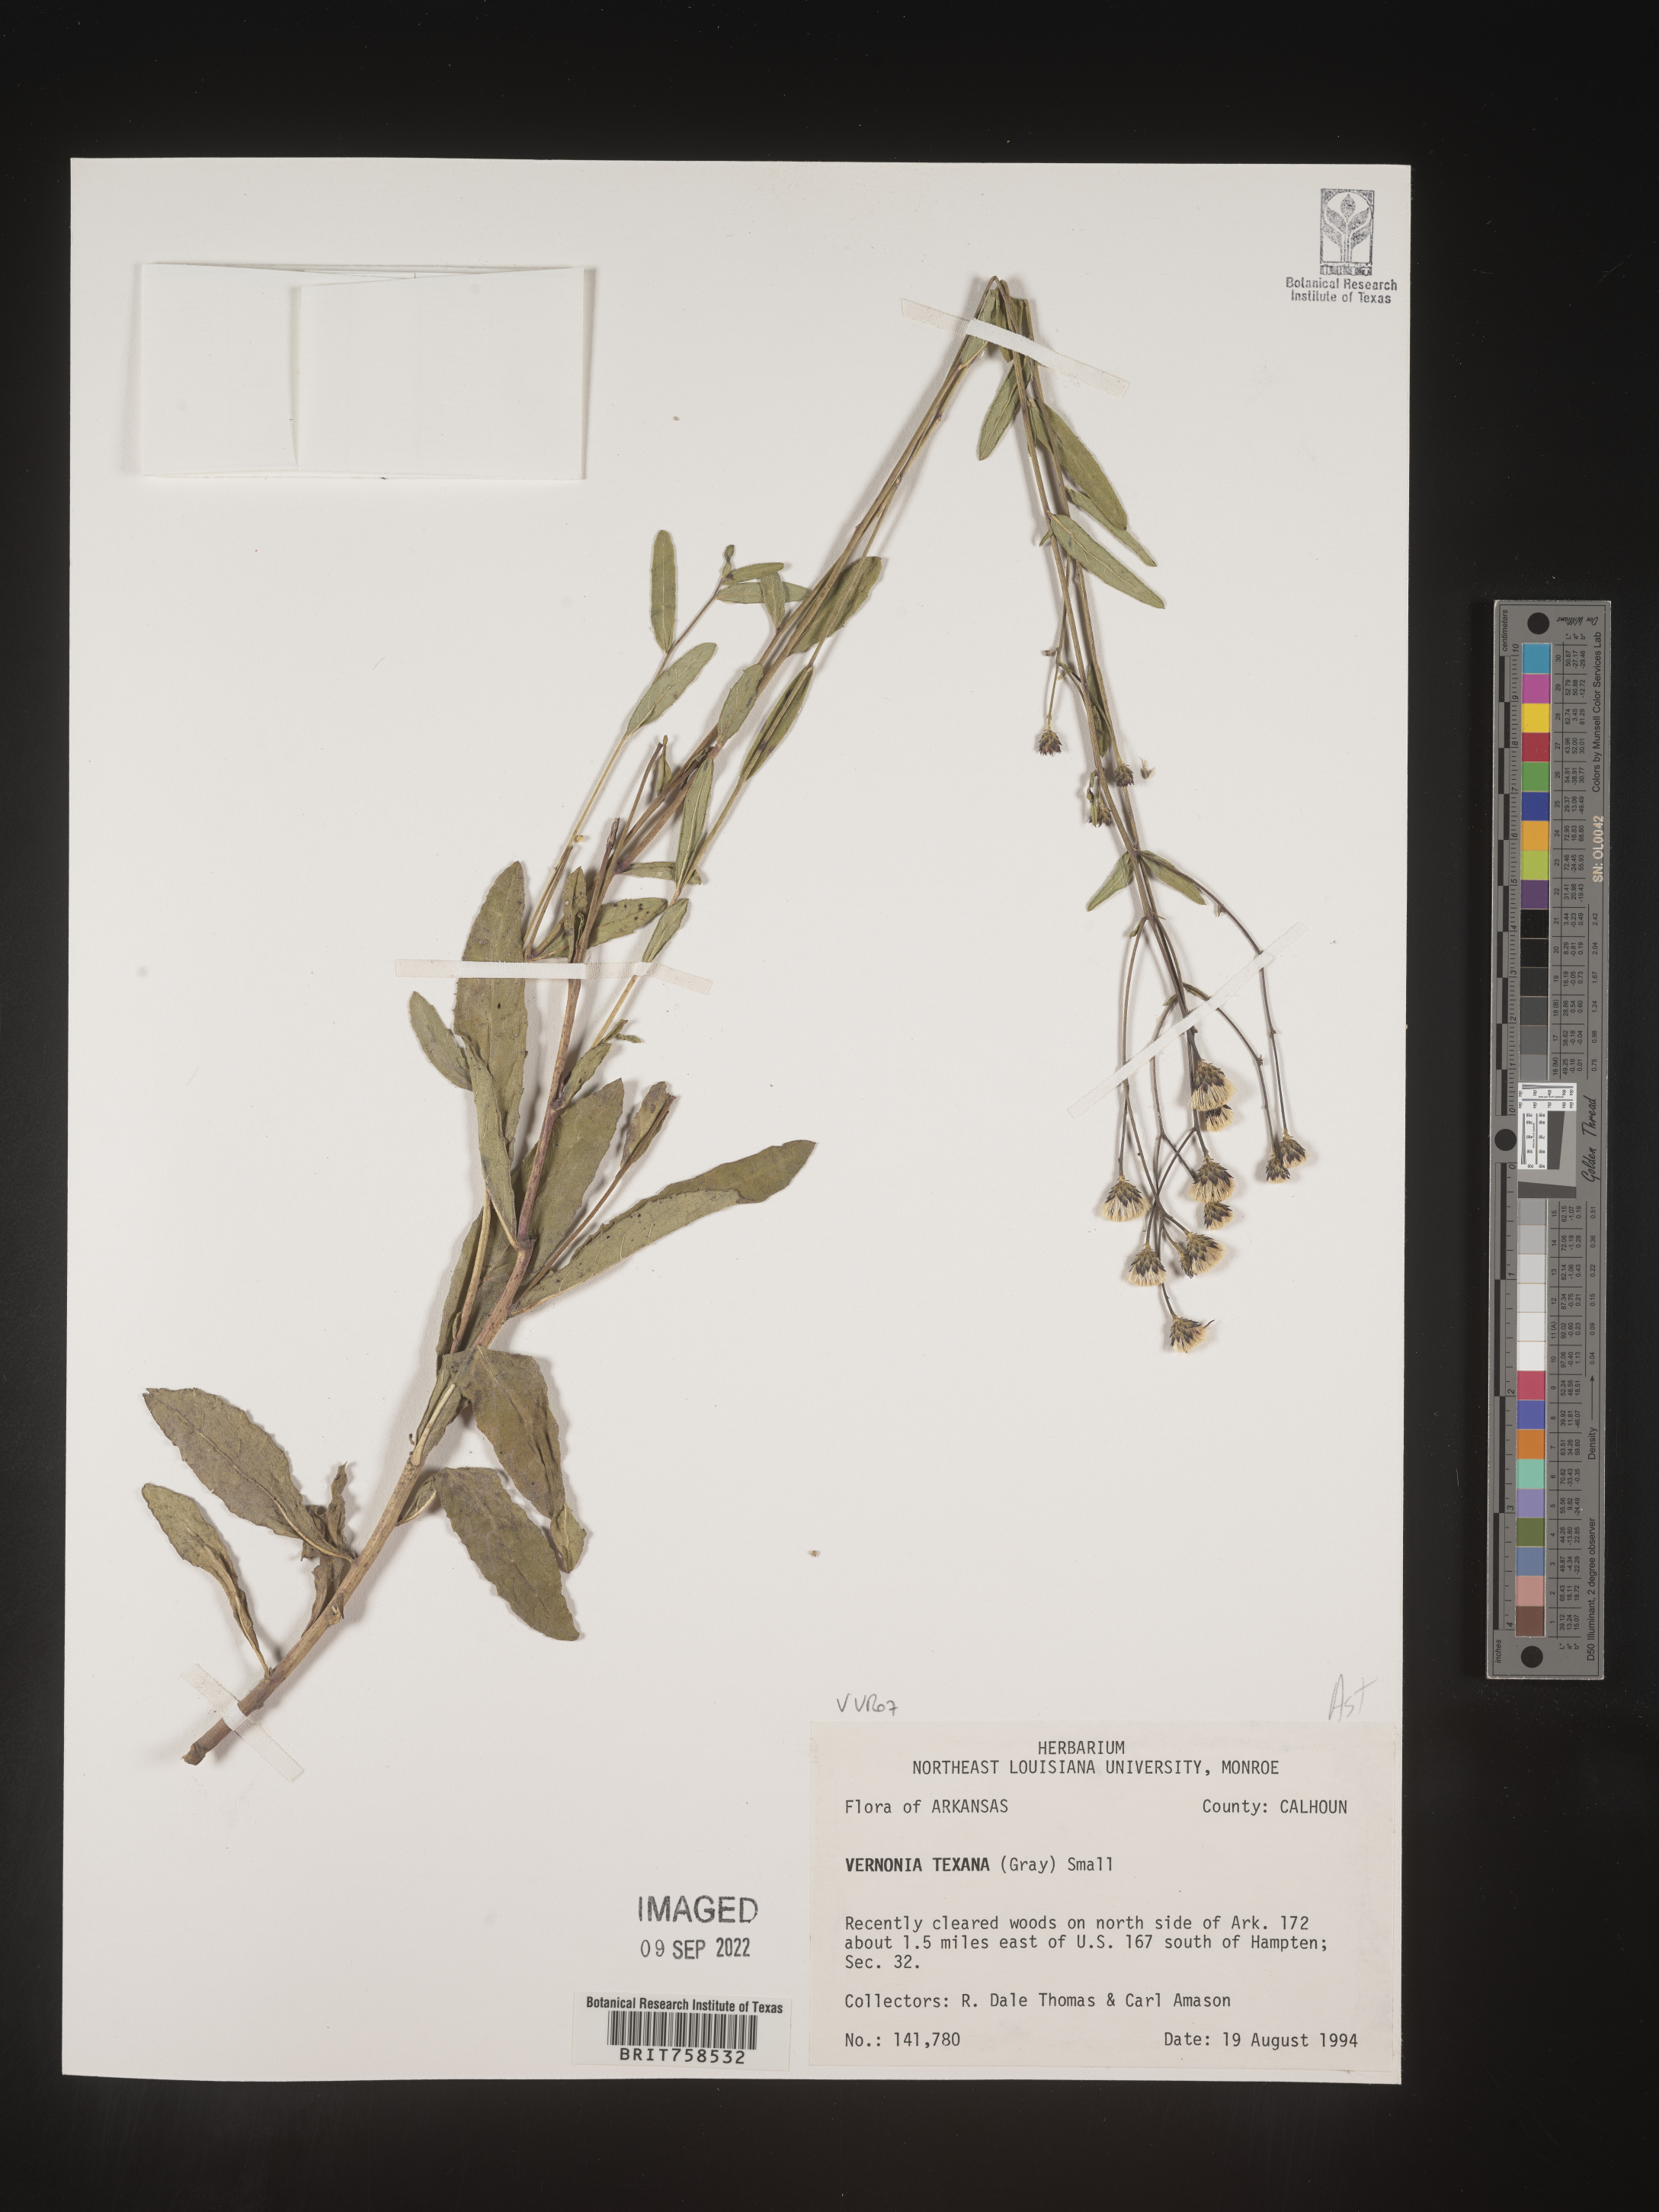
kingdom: Plantae
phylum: Tracheophyta
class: Magnoliopsida
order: Asterales
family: Asteraceae
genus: Vernonia
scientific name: Vernonia texana
